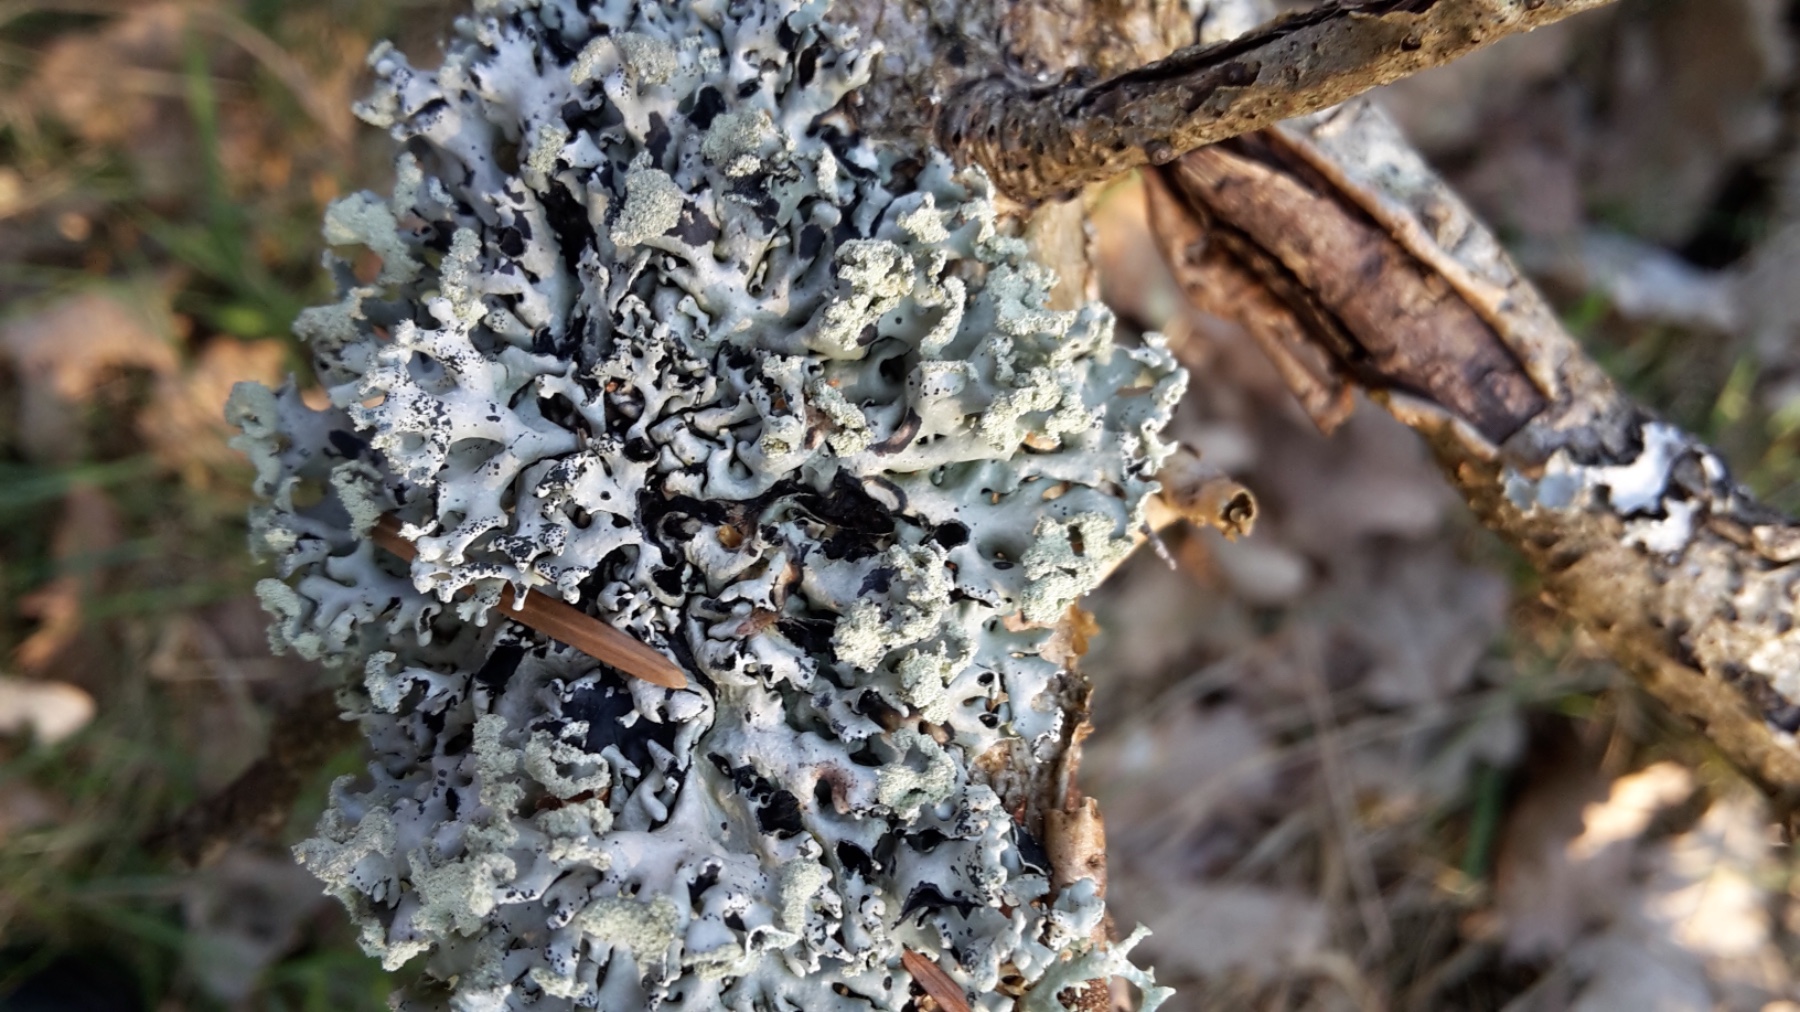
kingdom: Fungi
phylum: Ascomycota
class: Lecanoromycetes
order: Lecanorales
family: Parmeliaceae
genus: Hypogymnia
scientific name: Hypogymnia physodes
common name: almindelig kvistlav
